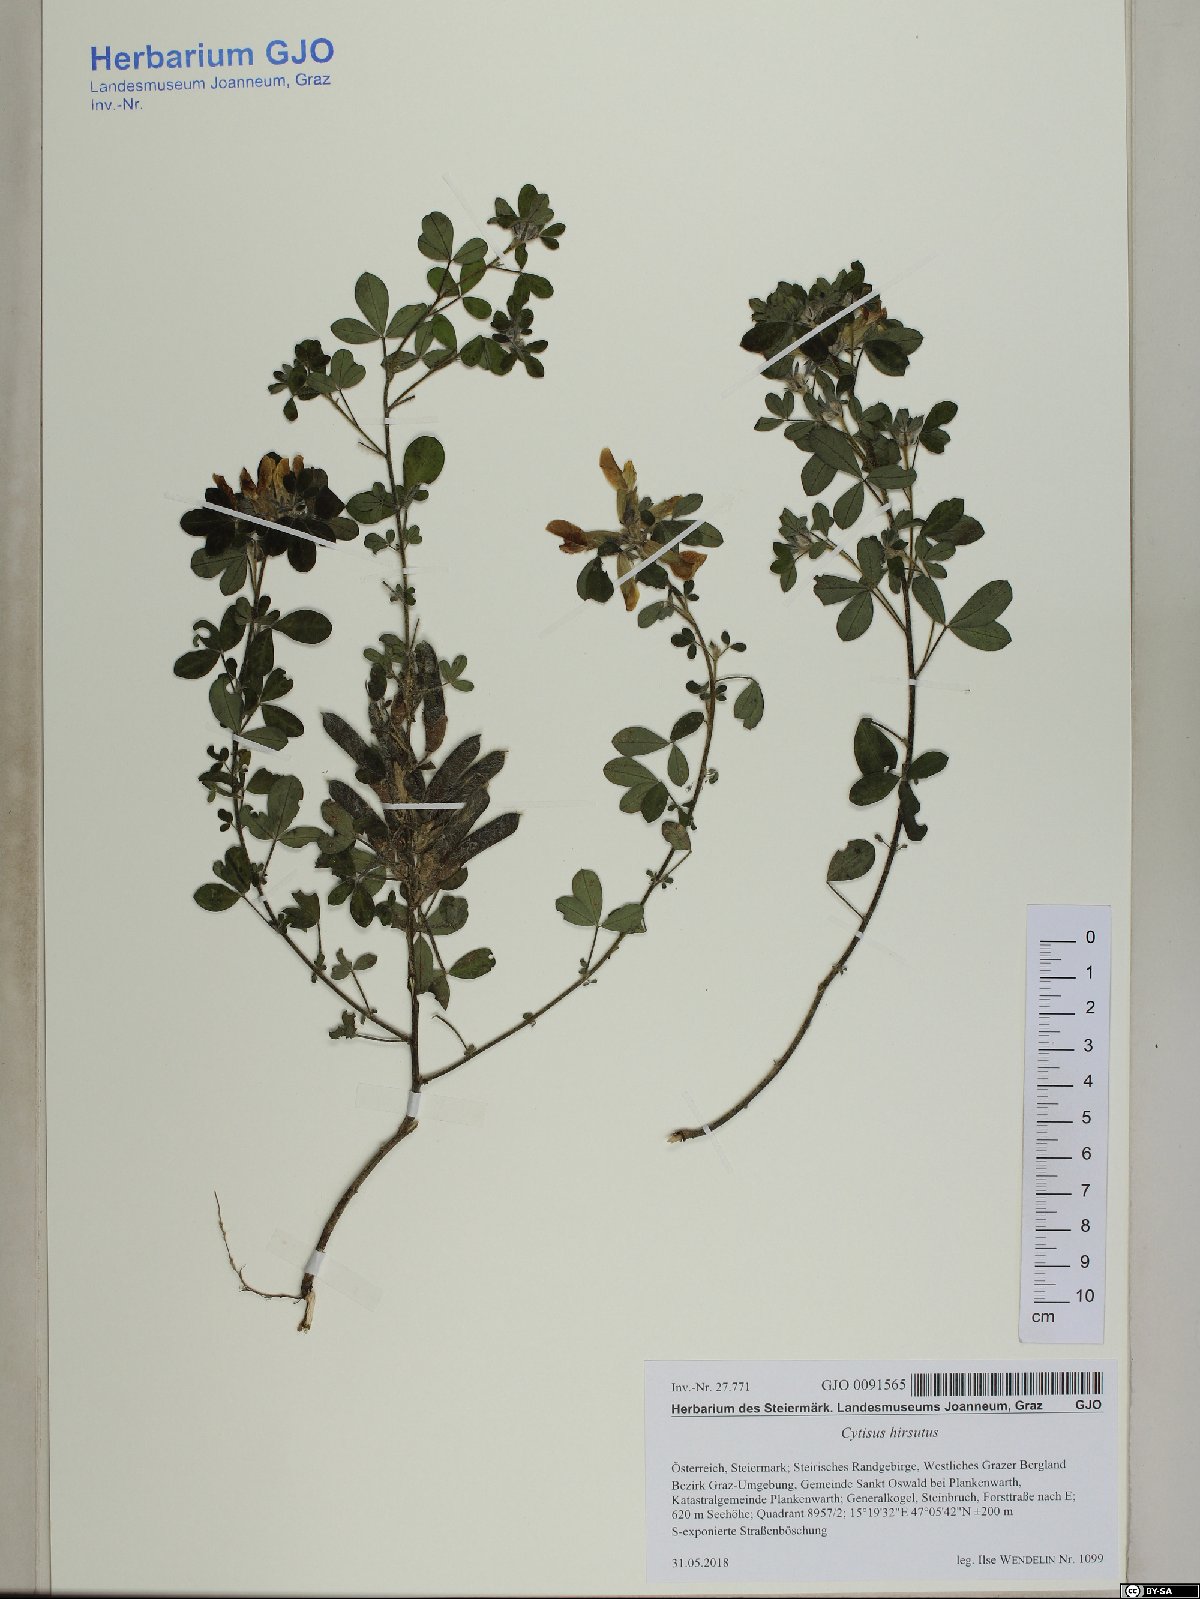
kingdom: Plantae
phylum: Tracheophyta
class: Magnoliopsida
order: Fabales
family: Fabaceae
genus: Chamaecytisus
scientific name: Chamaecytisus hirsutus
